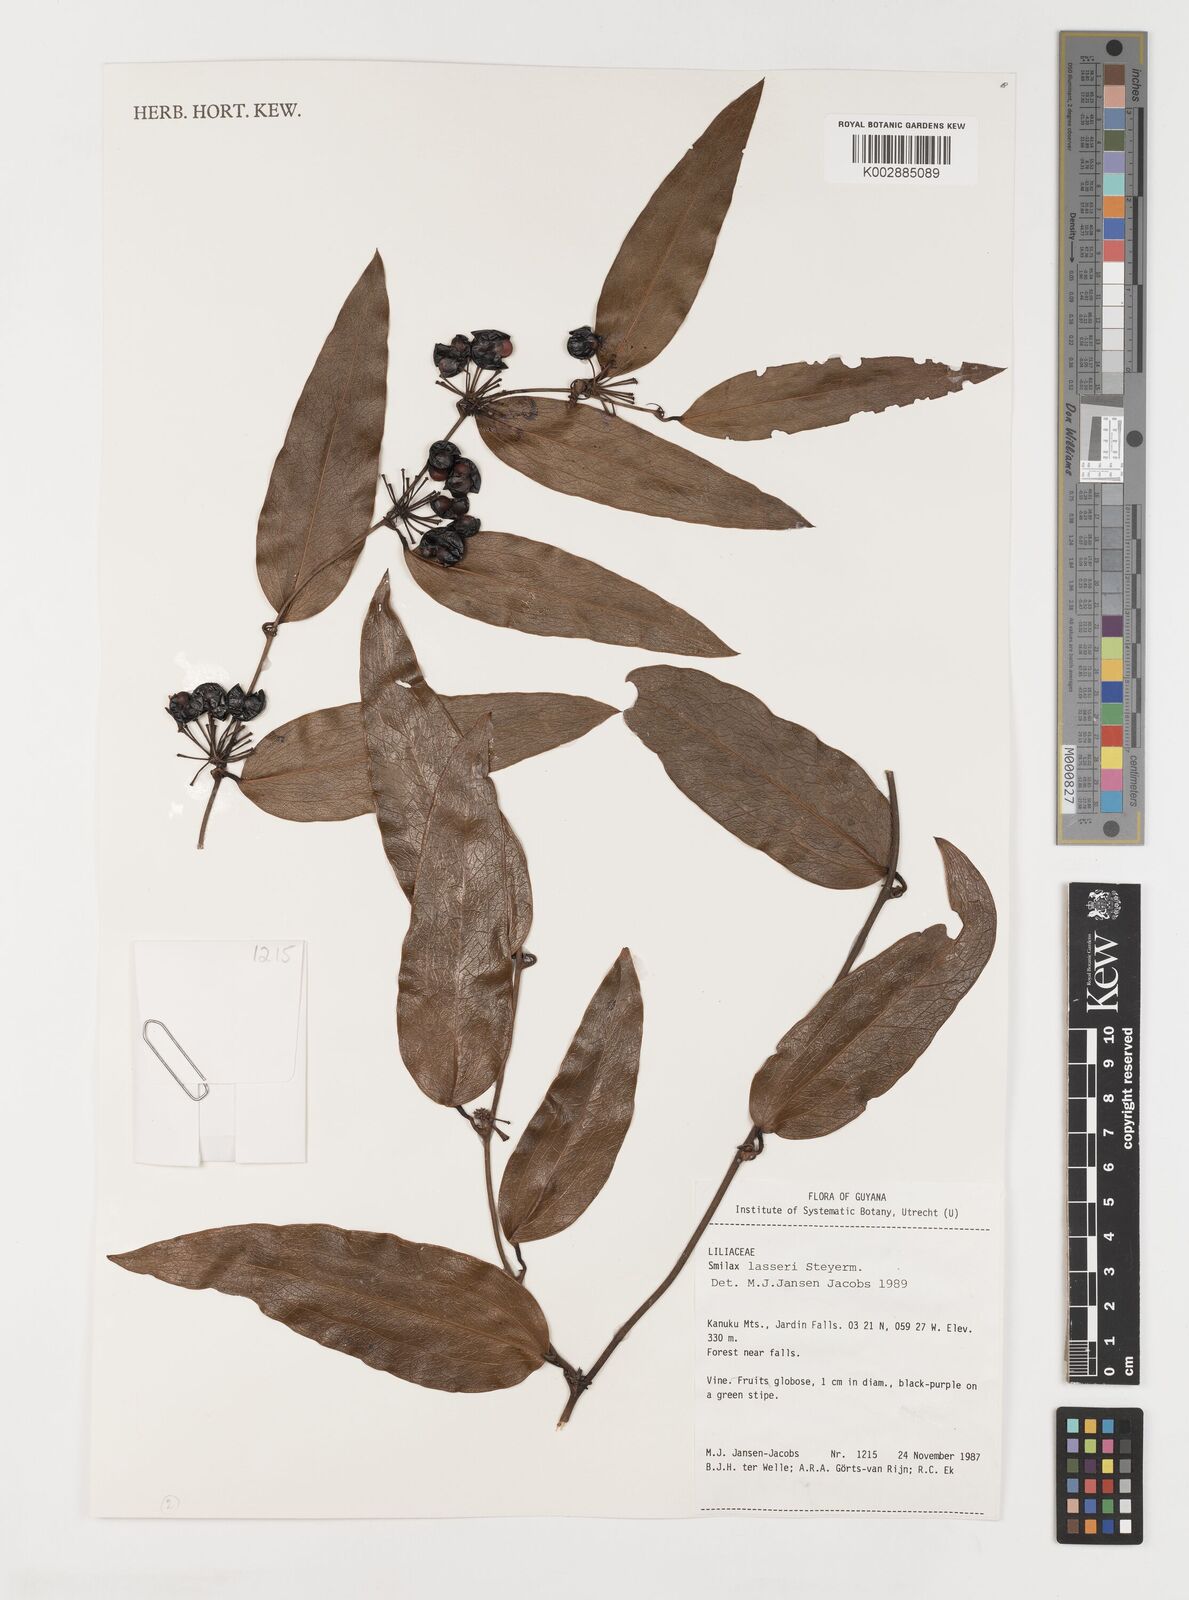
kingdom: Plantae
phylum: Tracheophyta
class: Liliopsida
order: Liliales
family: Smilacaceae
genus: Smilax
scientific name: Smilax domingensis
